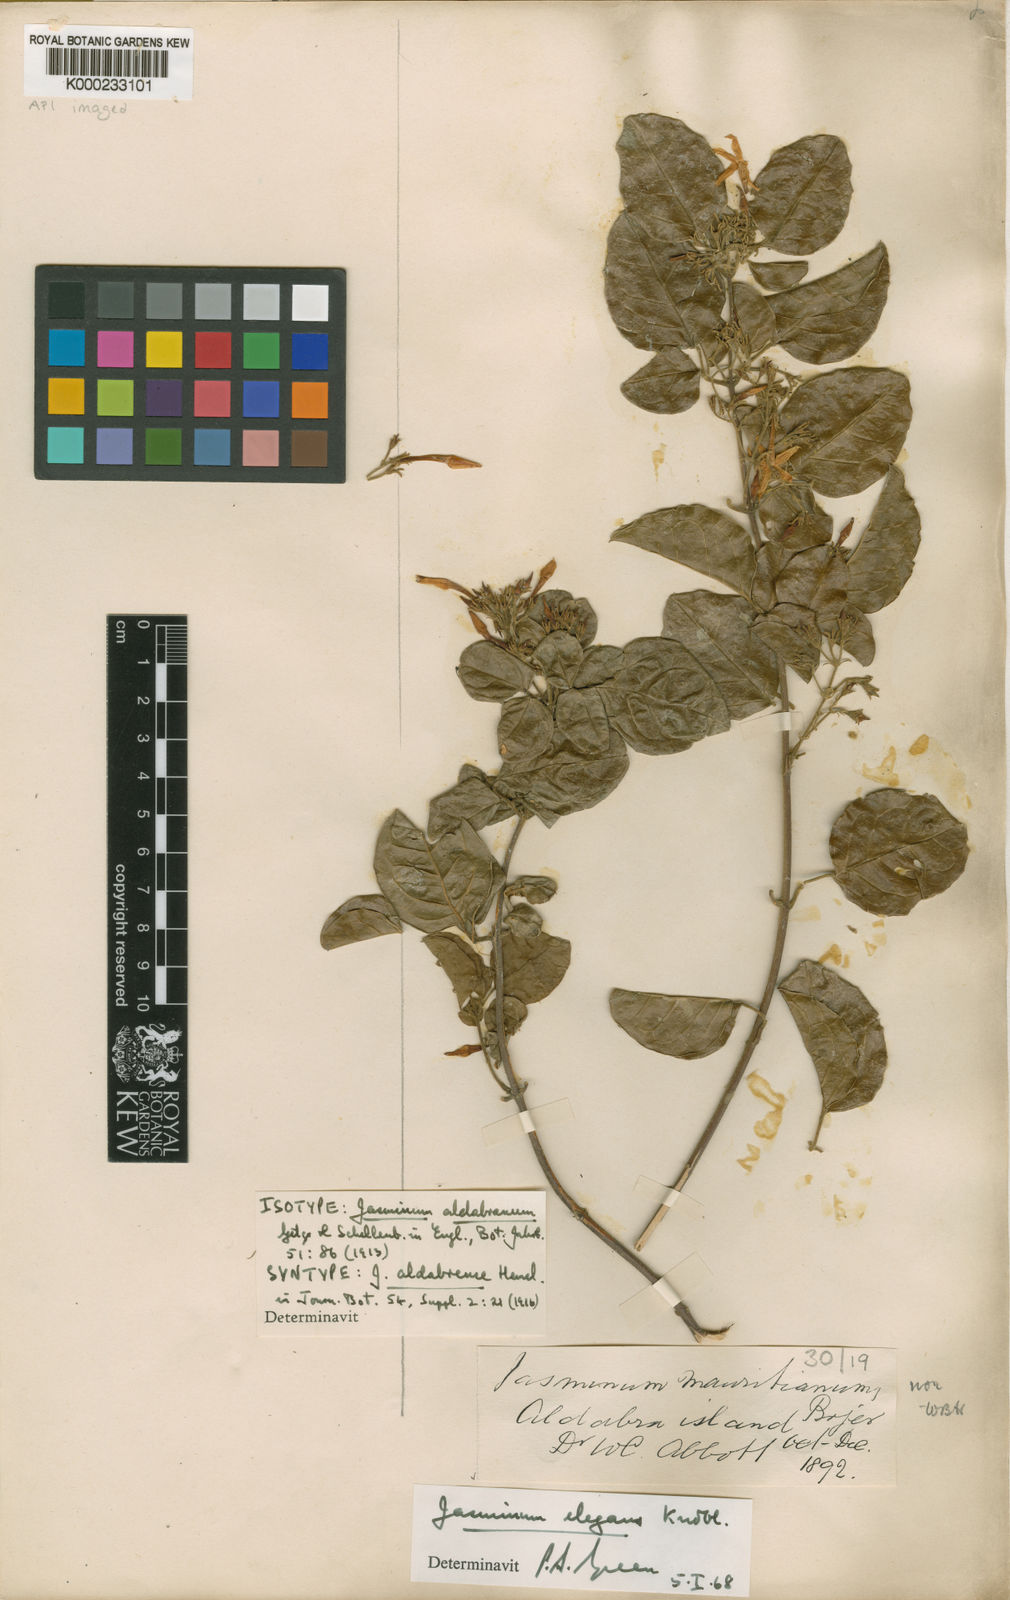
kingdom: Plantae
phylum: Tracheophyta
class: Magnoliopsida
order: Lamiales
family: Oleaceae
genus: Jasminum
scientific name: Jasminum elegans
